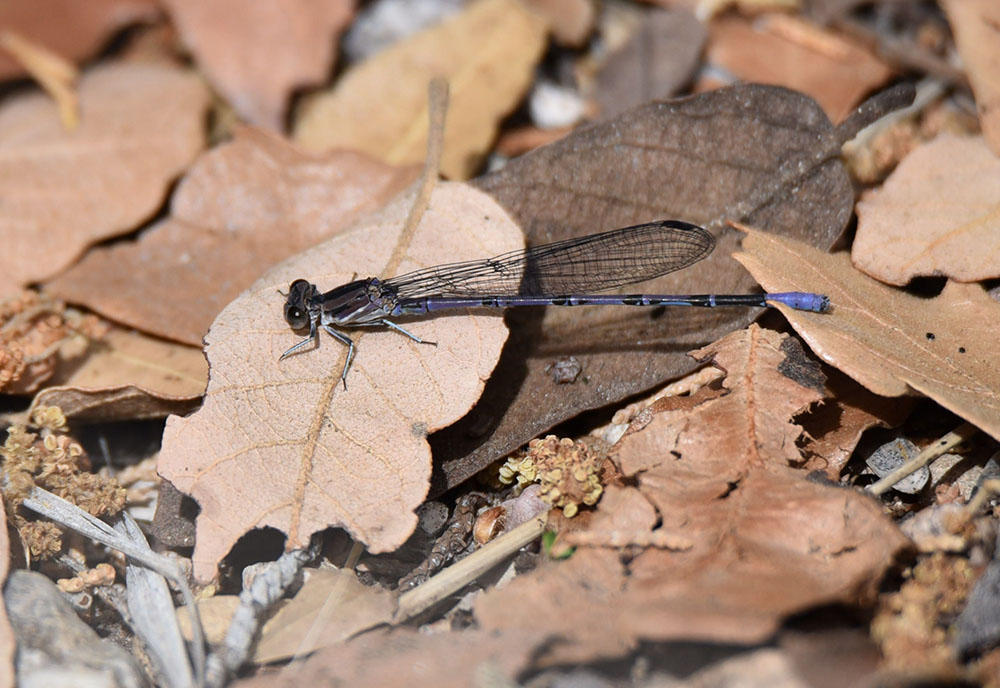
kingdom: Animalia
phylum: Arthropoda
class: Insecta
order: Odonata
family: Coenagrionidae
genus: Argia
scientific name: Argia tonto
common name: Tonto dancer
